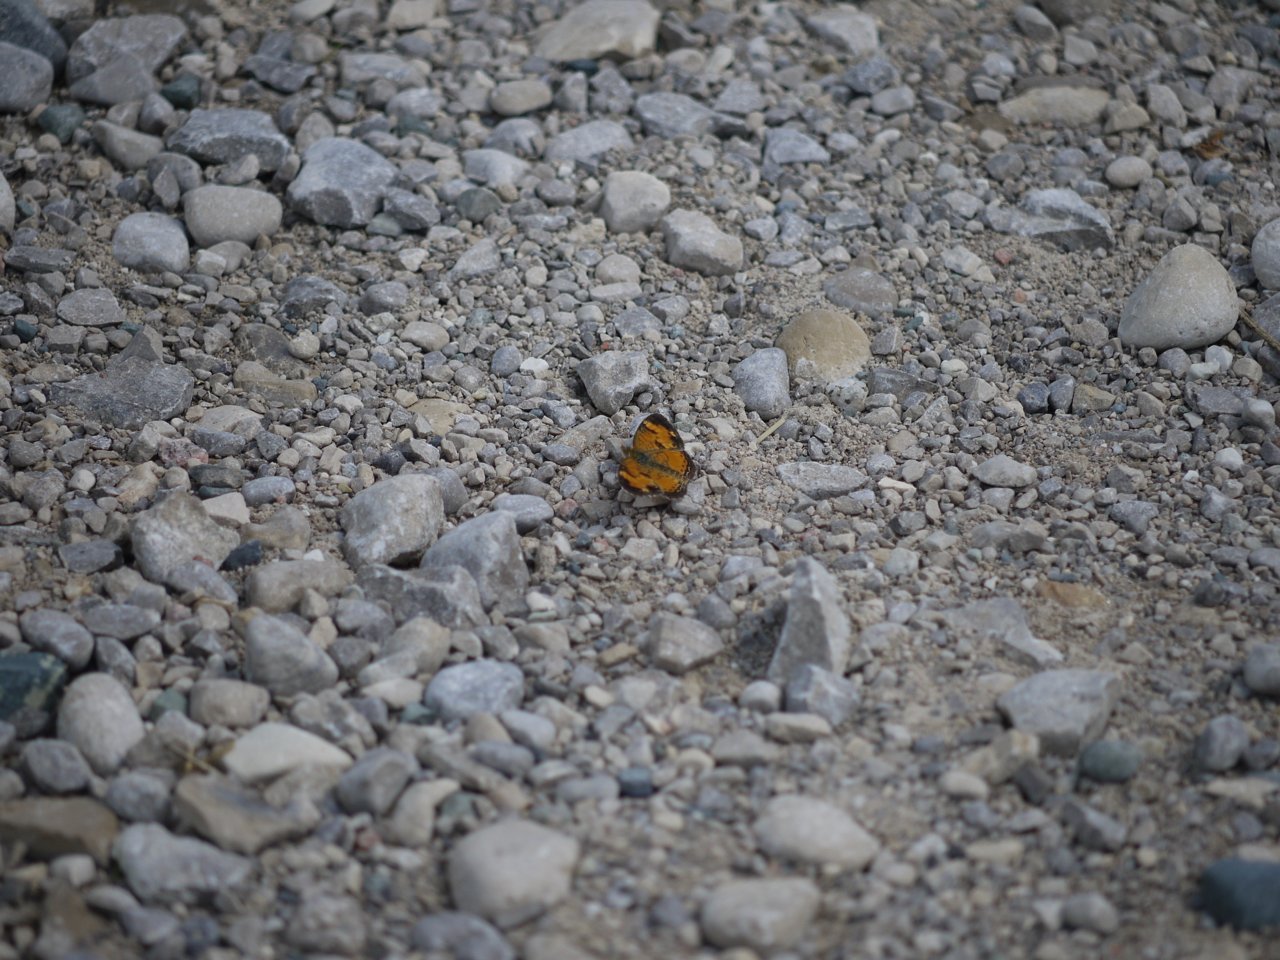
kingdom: Animalia
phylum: Arthropoda
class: Insecta
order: Lepidoptera
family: Nymphalidae
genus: Phyciodes
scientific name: Phyciodes tharos
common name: Northern Crescent
